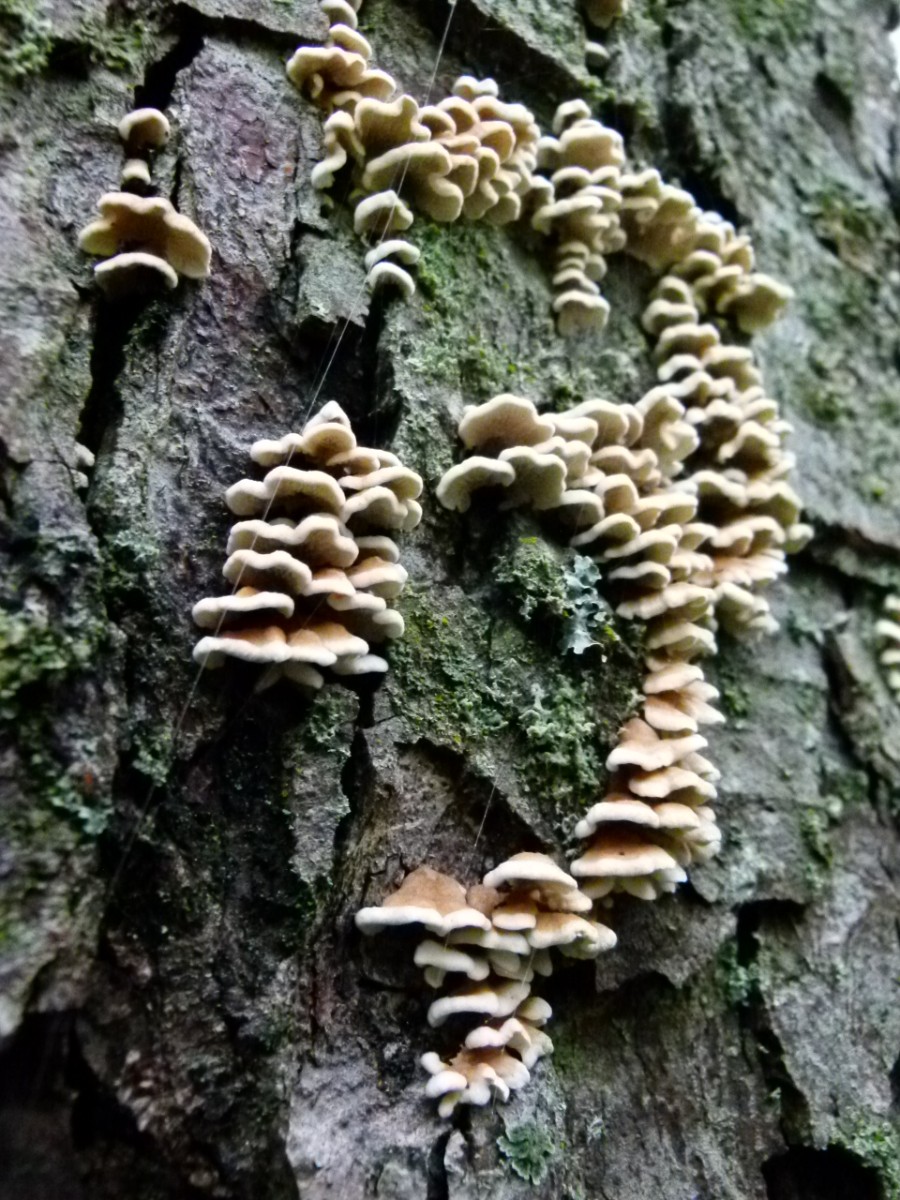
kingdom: Fungi
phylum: Basidiomycota
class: Agaricomycetes
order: Amylocorticiales
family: Amylocorticiaceae
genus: Plicaturopsis
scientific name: Plicaturopsis crispa
